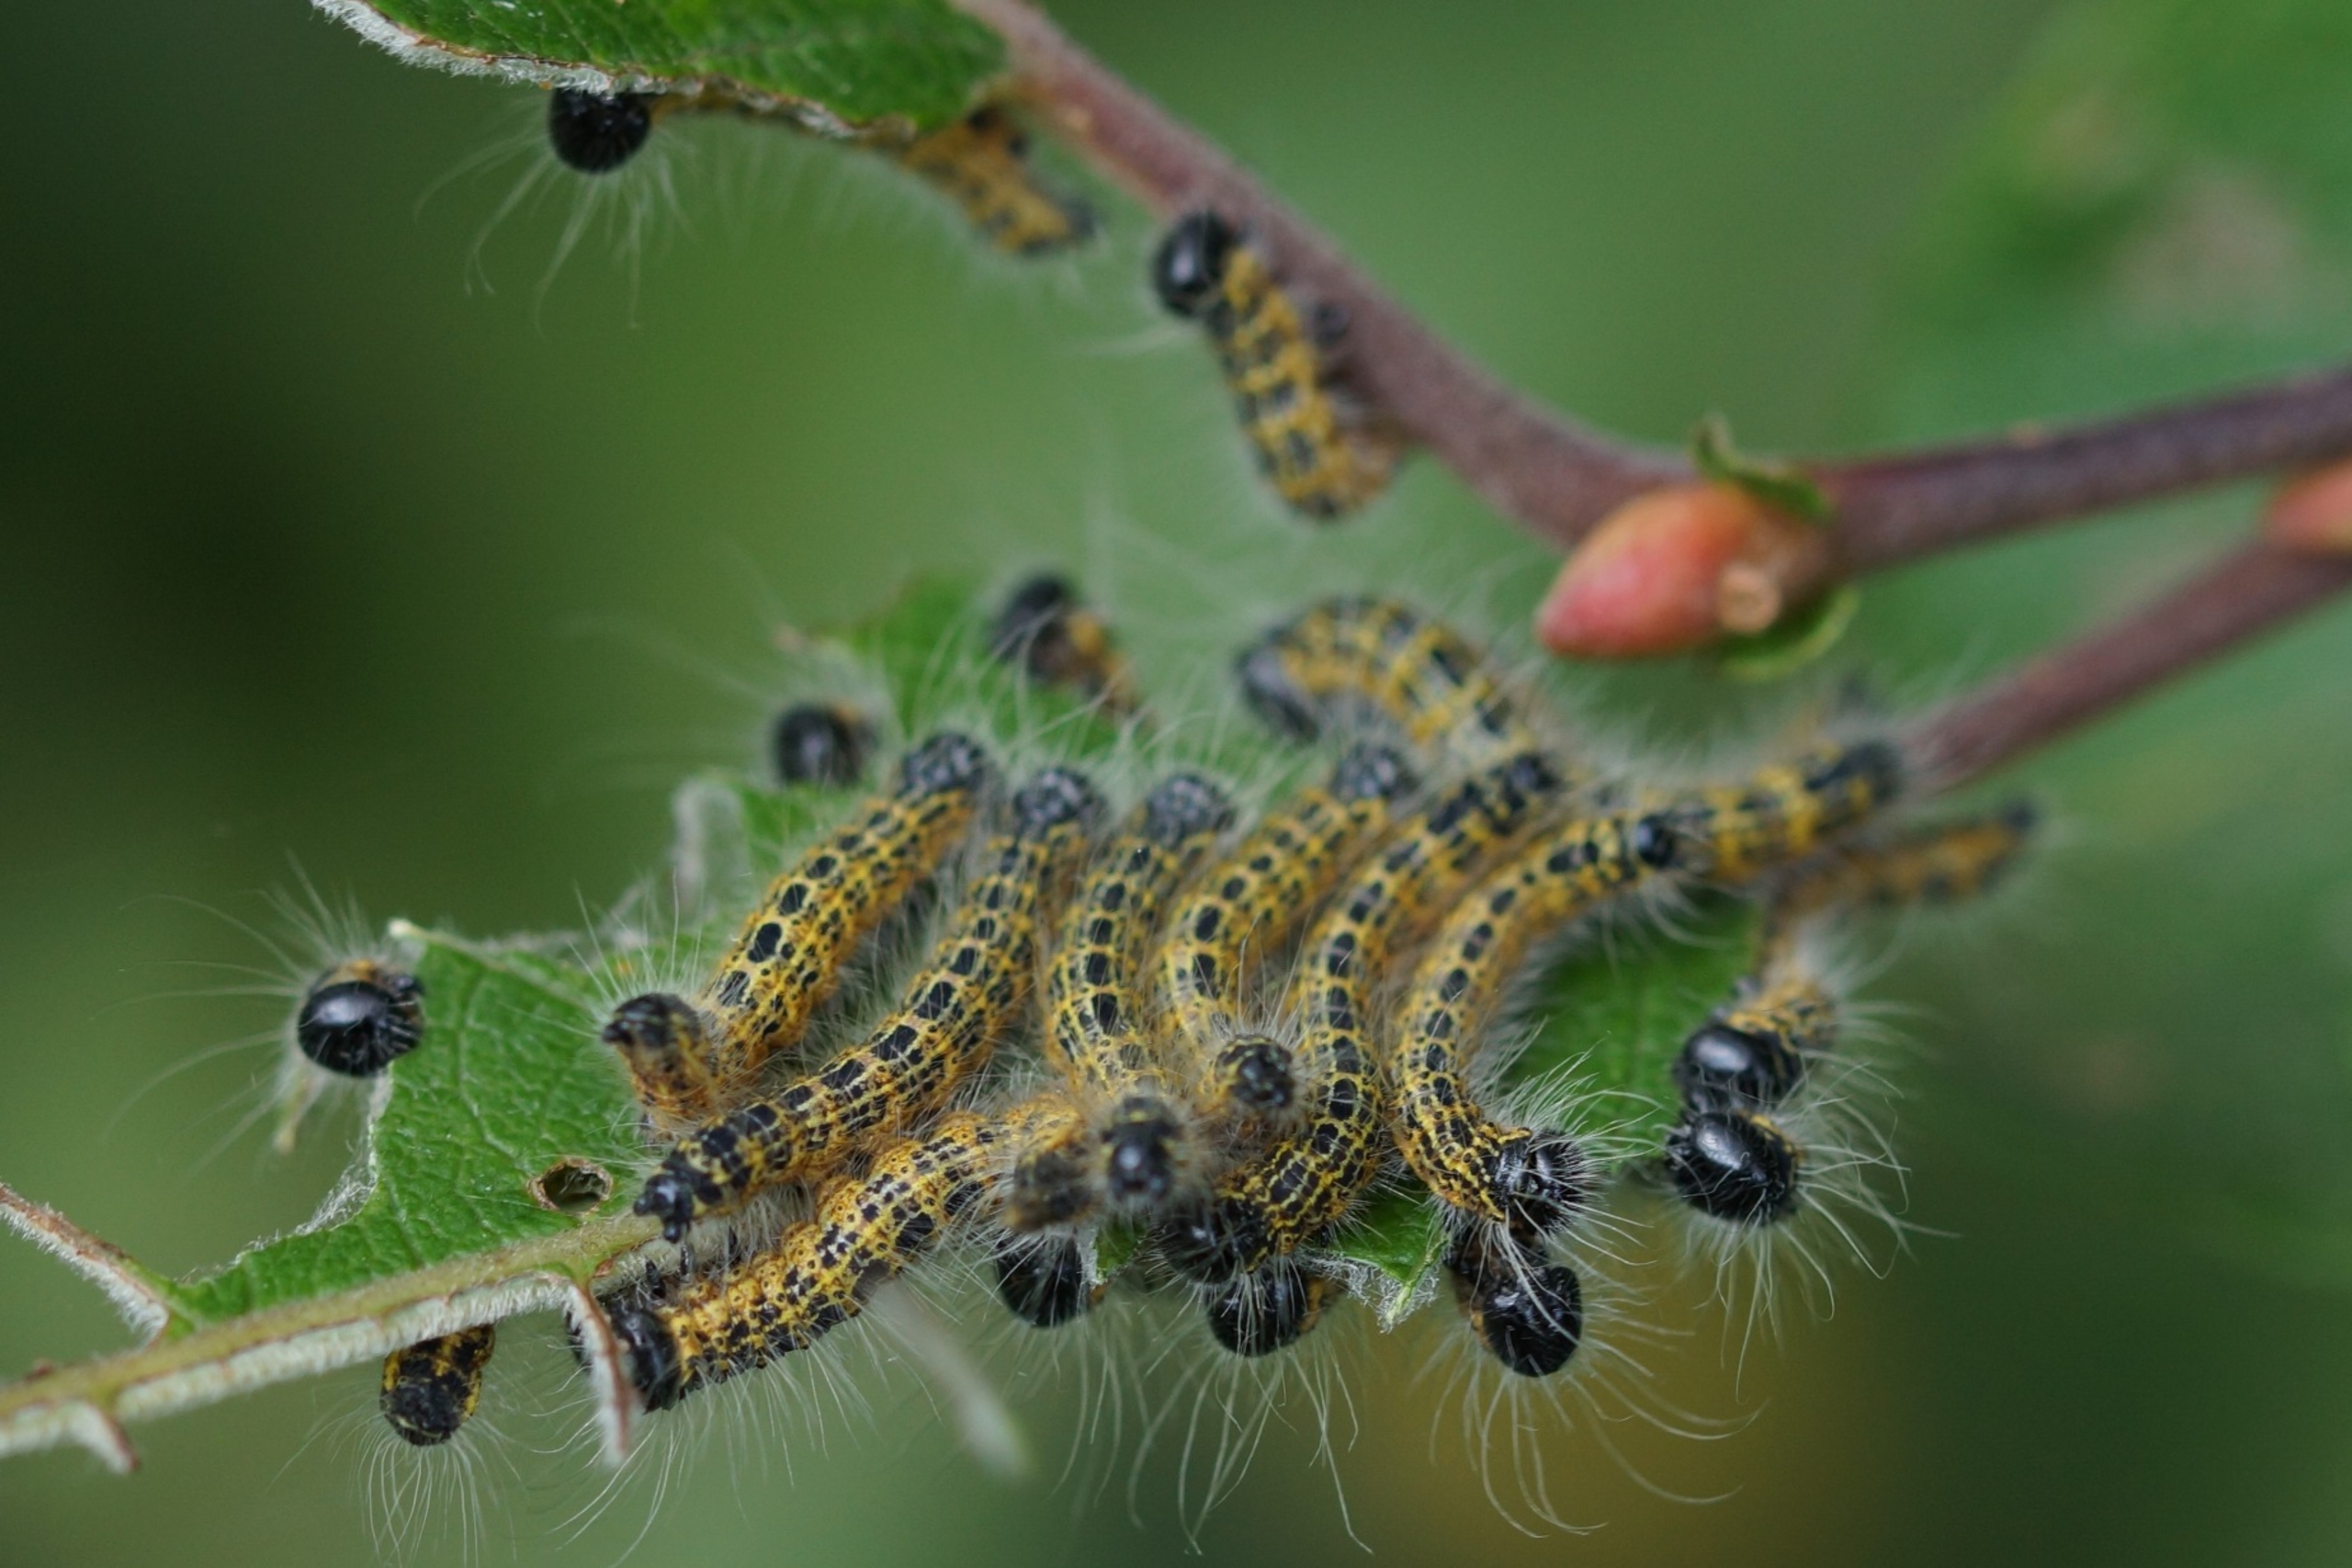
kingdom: Animalia
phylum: Arthropoda
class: Insecta
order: Lepidoptera
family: Notodontidae
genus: Phalera
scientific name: Phalera bucephala
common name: Måneplet
